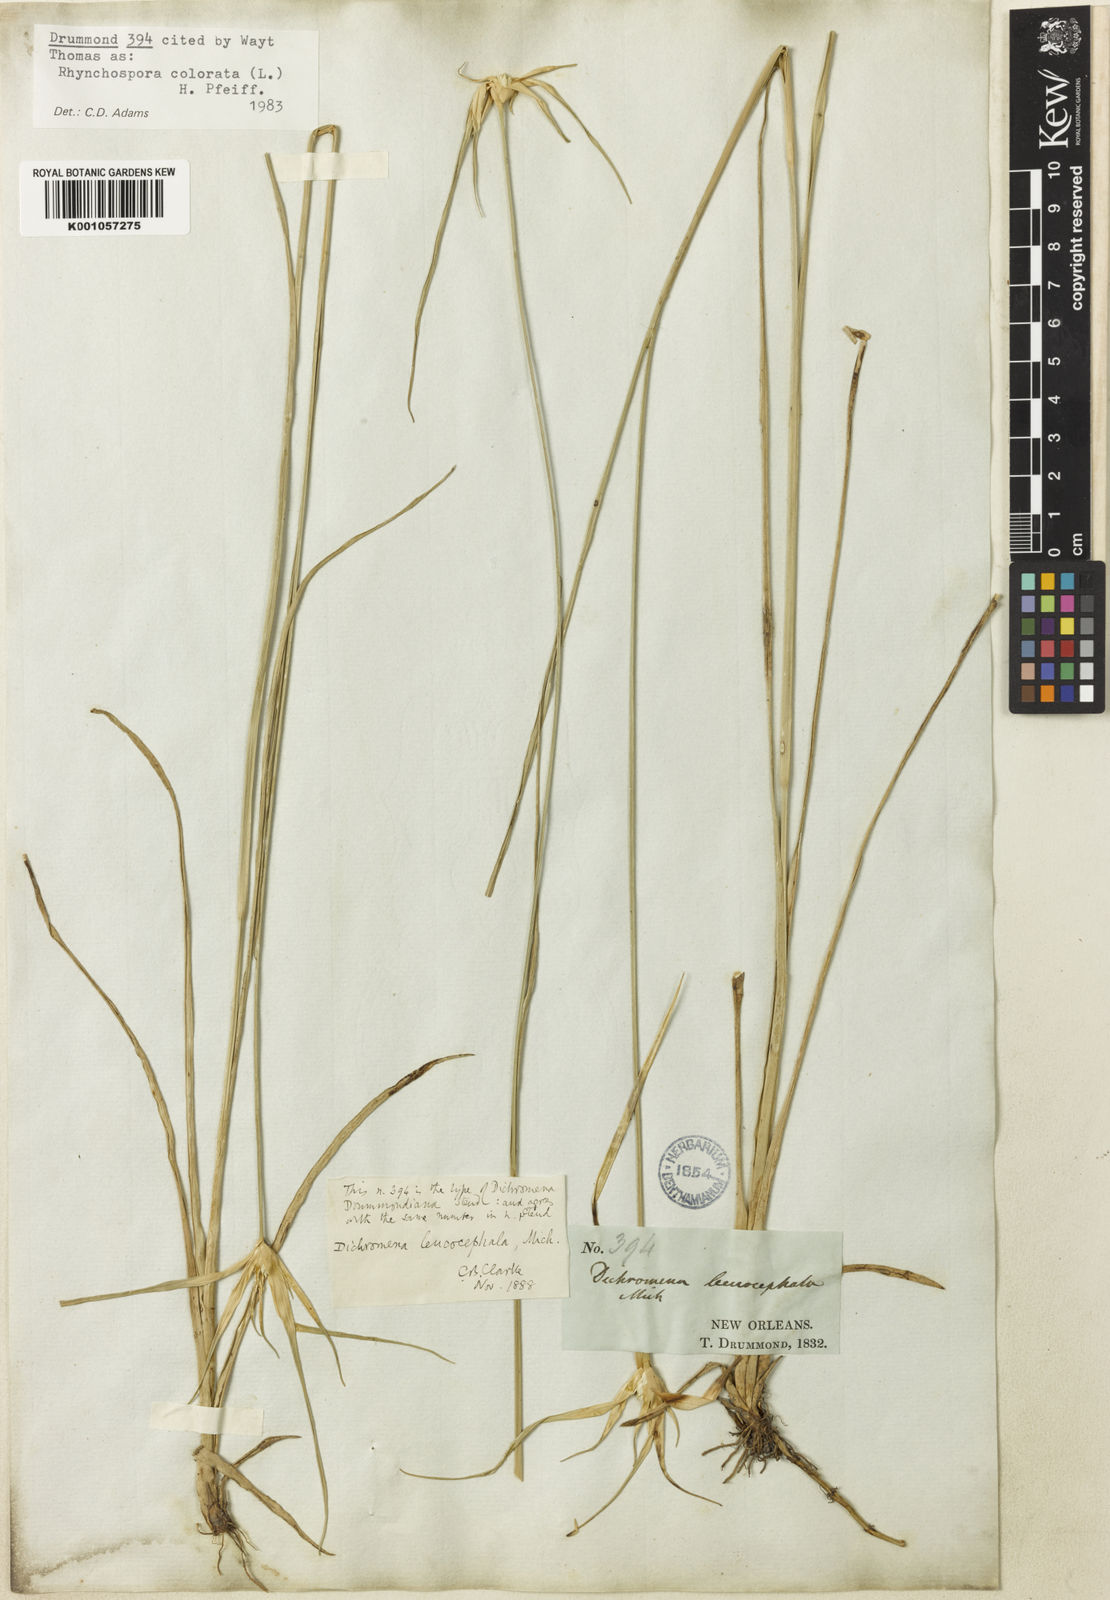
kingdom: Plantae
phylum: Tracheophyta
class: Liliopsida
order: Poales
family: Cyperaceae
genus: Rhynchospora
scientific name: Rhynchospora colorata
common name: Star sedge
